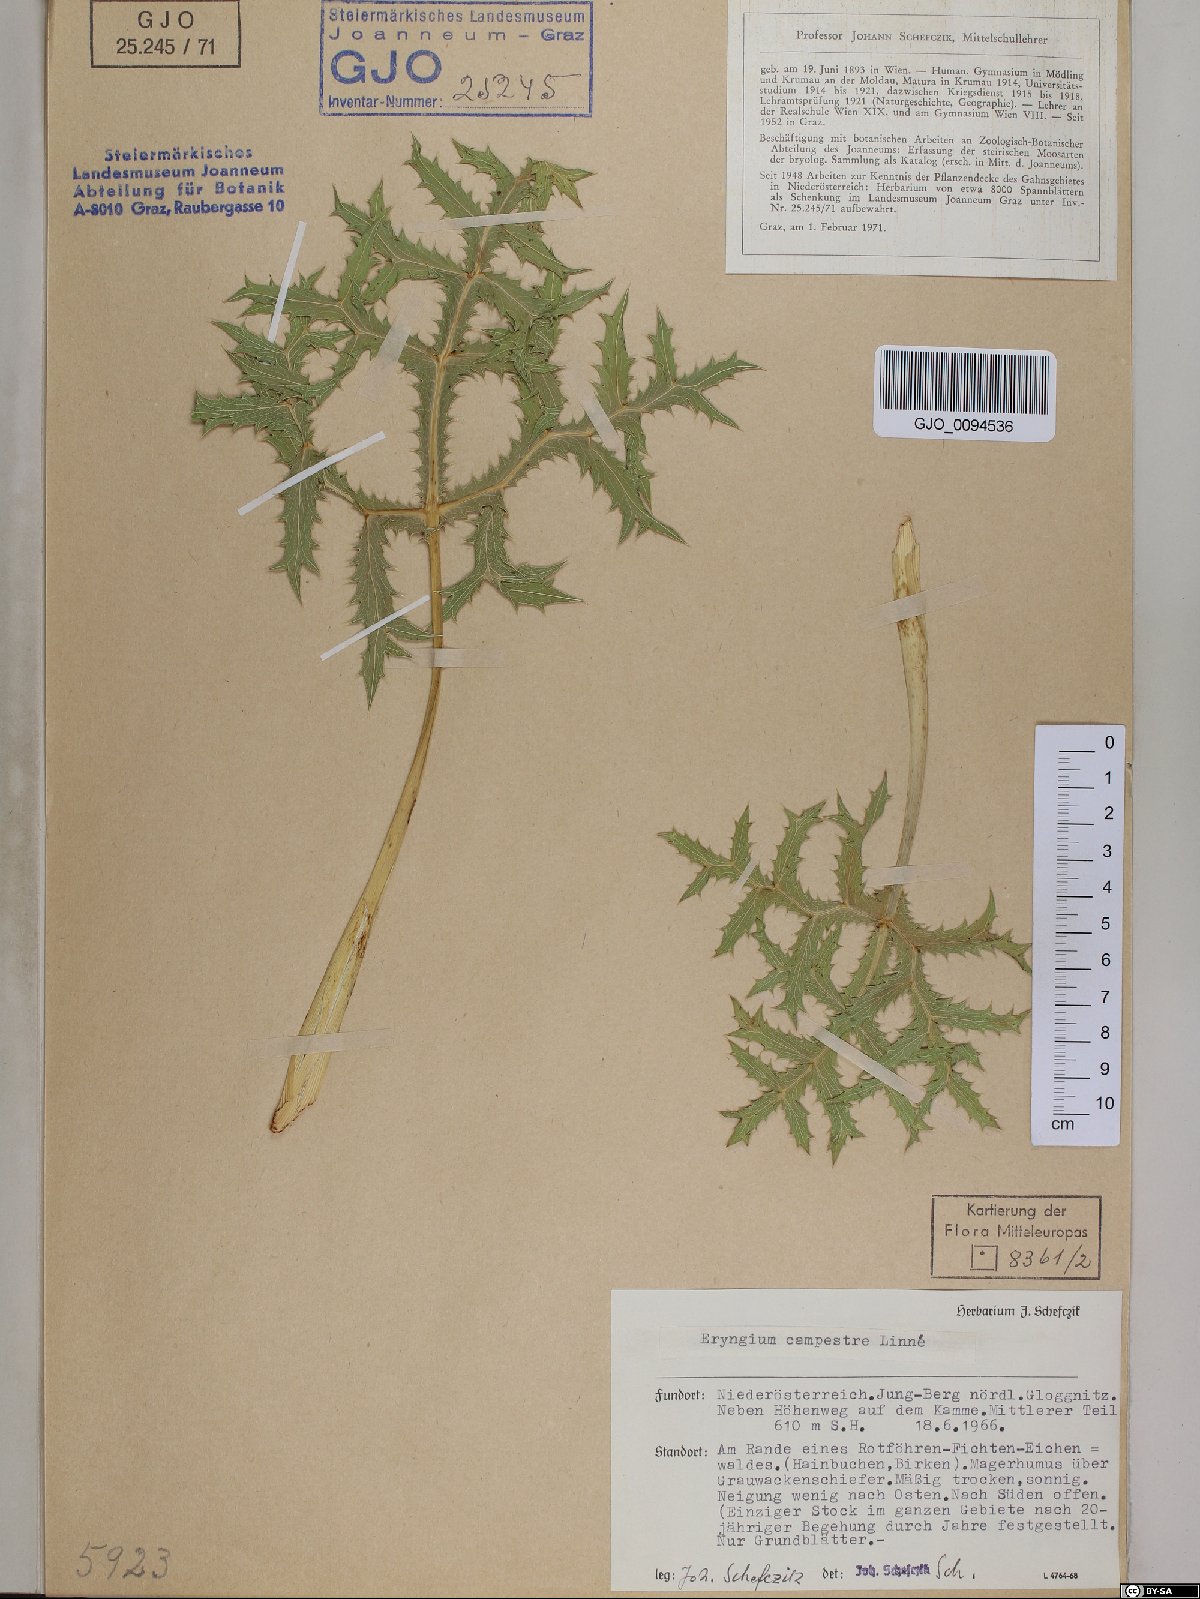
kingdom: Plantae
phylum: Tracheophyta
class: Magnoliopsida
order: Apiales
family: Apiaceae
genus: Eryngium
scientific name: Eryngium campestre
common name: Field eryngo
